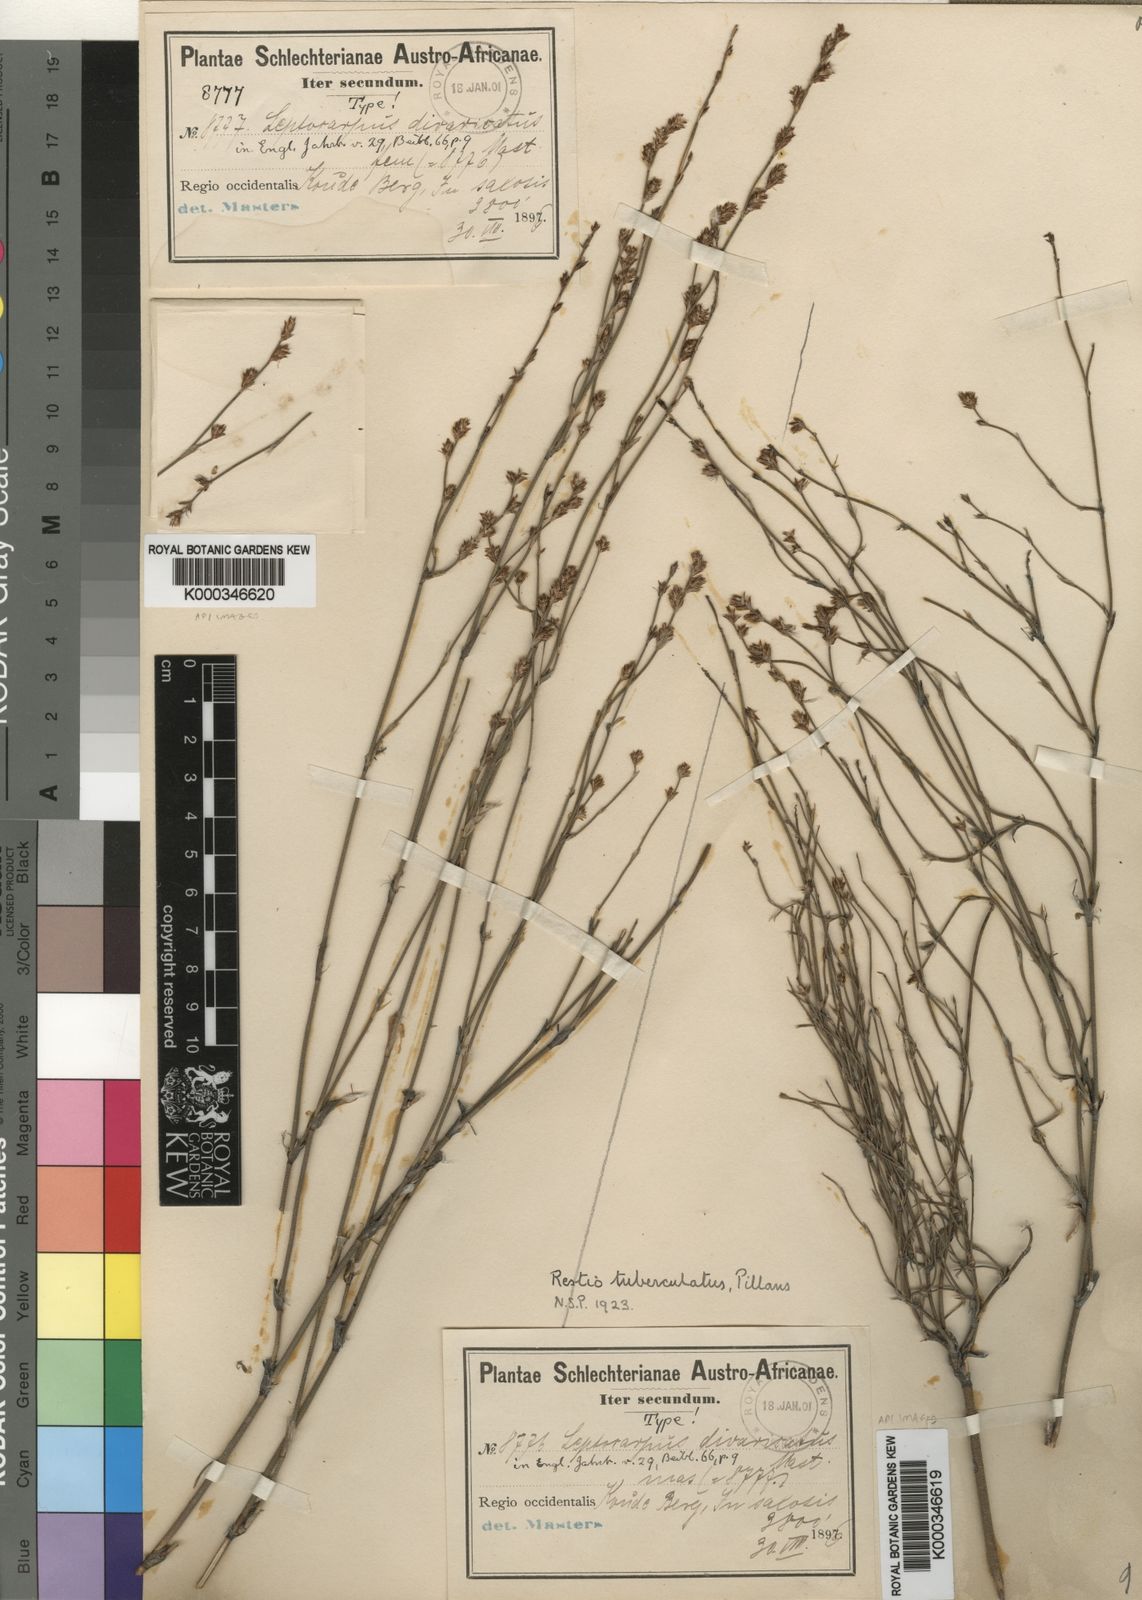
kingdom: Plantae
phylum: Tracheophyta
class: Liliopsida
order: Poales
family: Restionaceae
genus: Restio
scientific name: Restio tuberculatus
